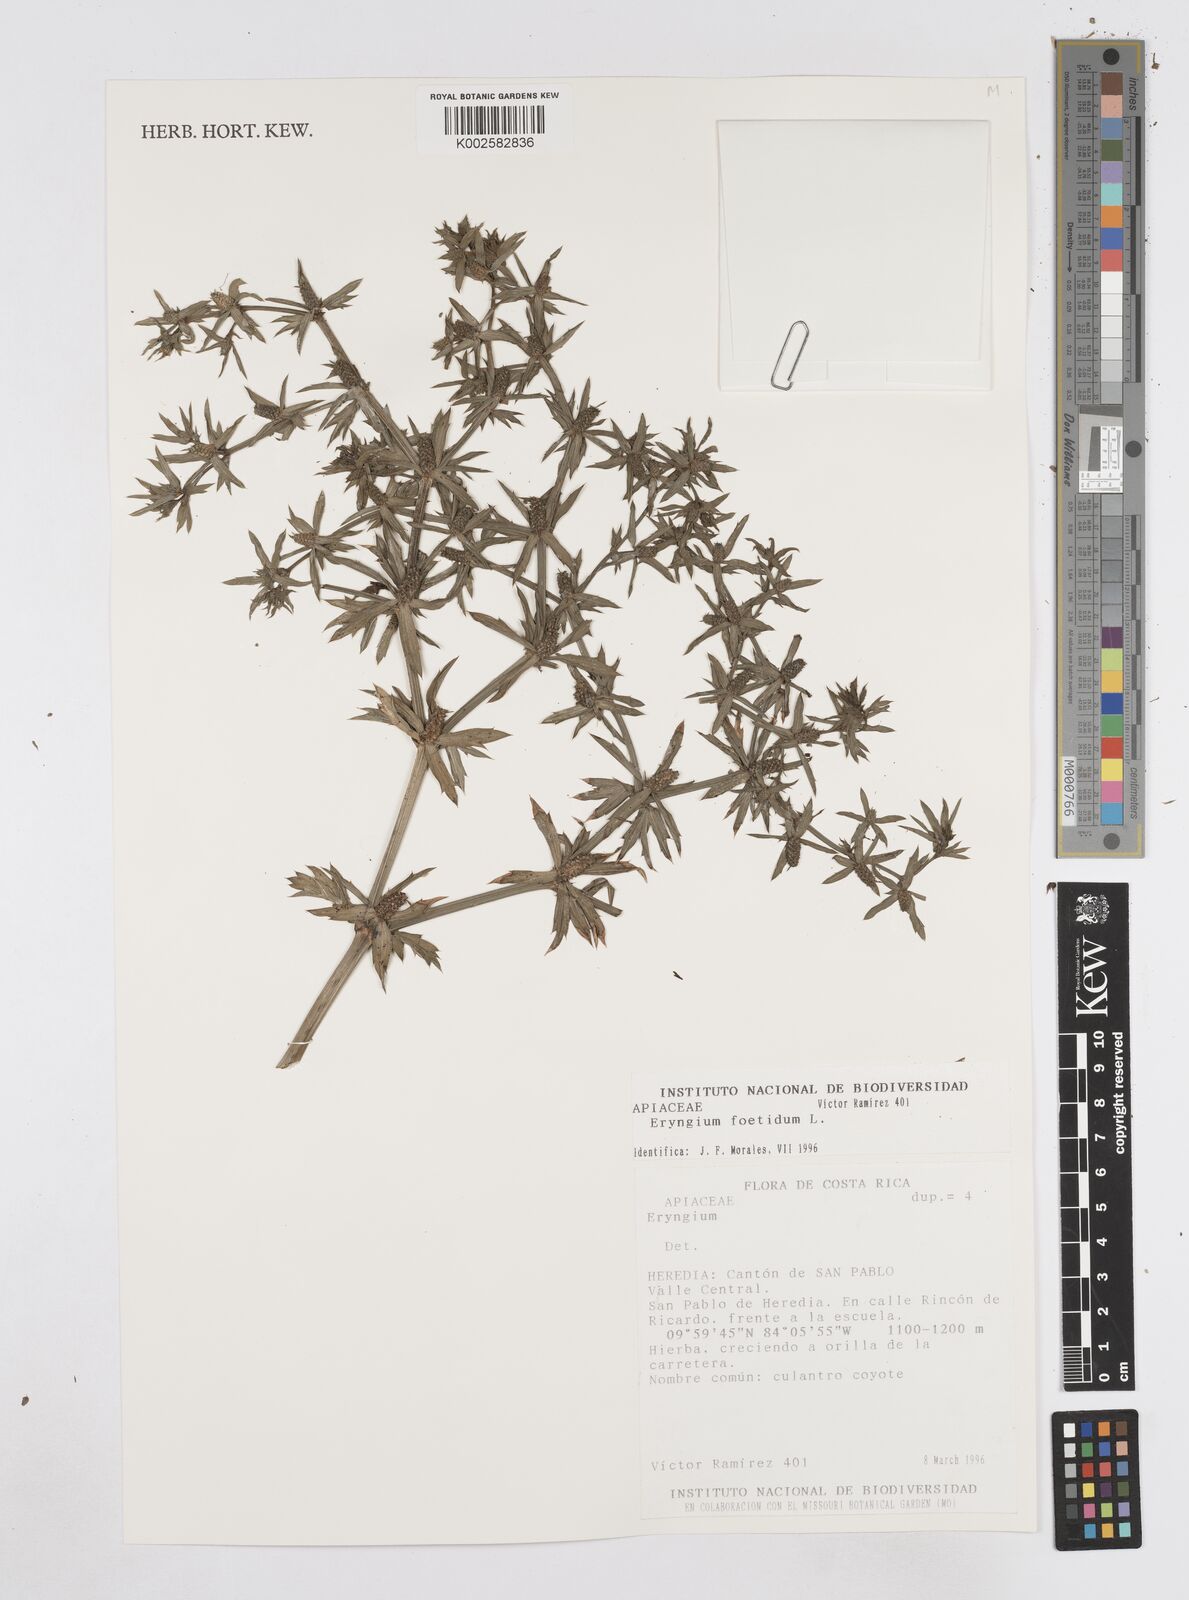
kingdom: Plantae
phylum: Tracheophyta
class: Magnoliopsida
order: Apiales
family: Apiaceae
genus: Eryngium
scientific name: Eryngium foetidum
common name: Fitweed
